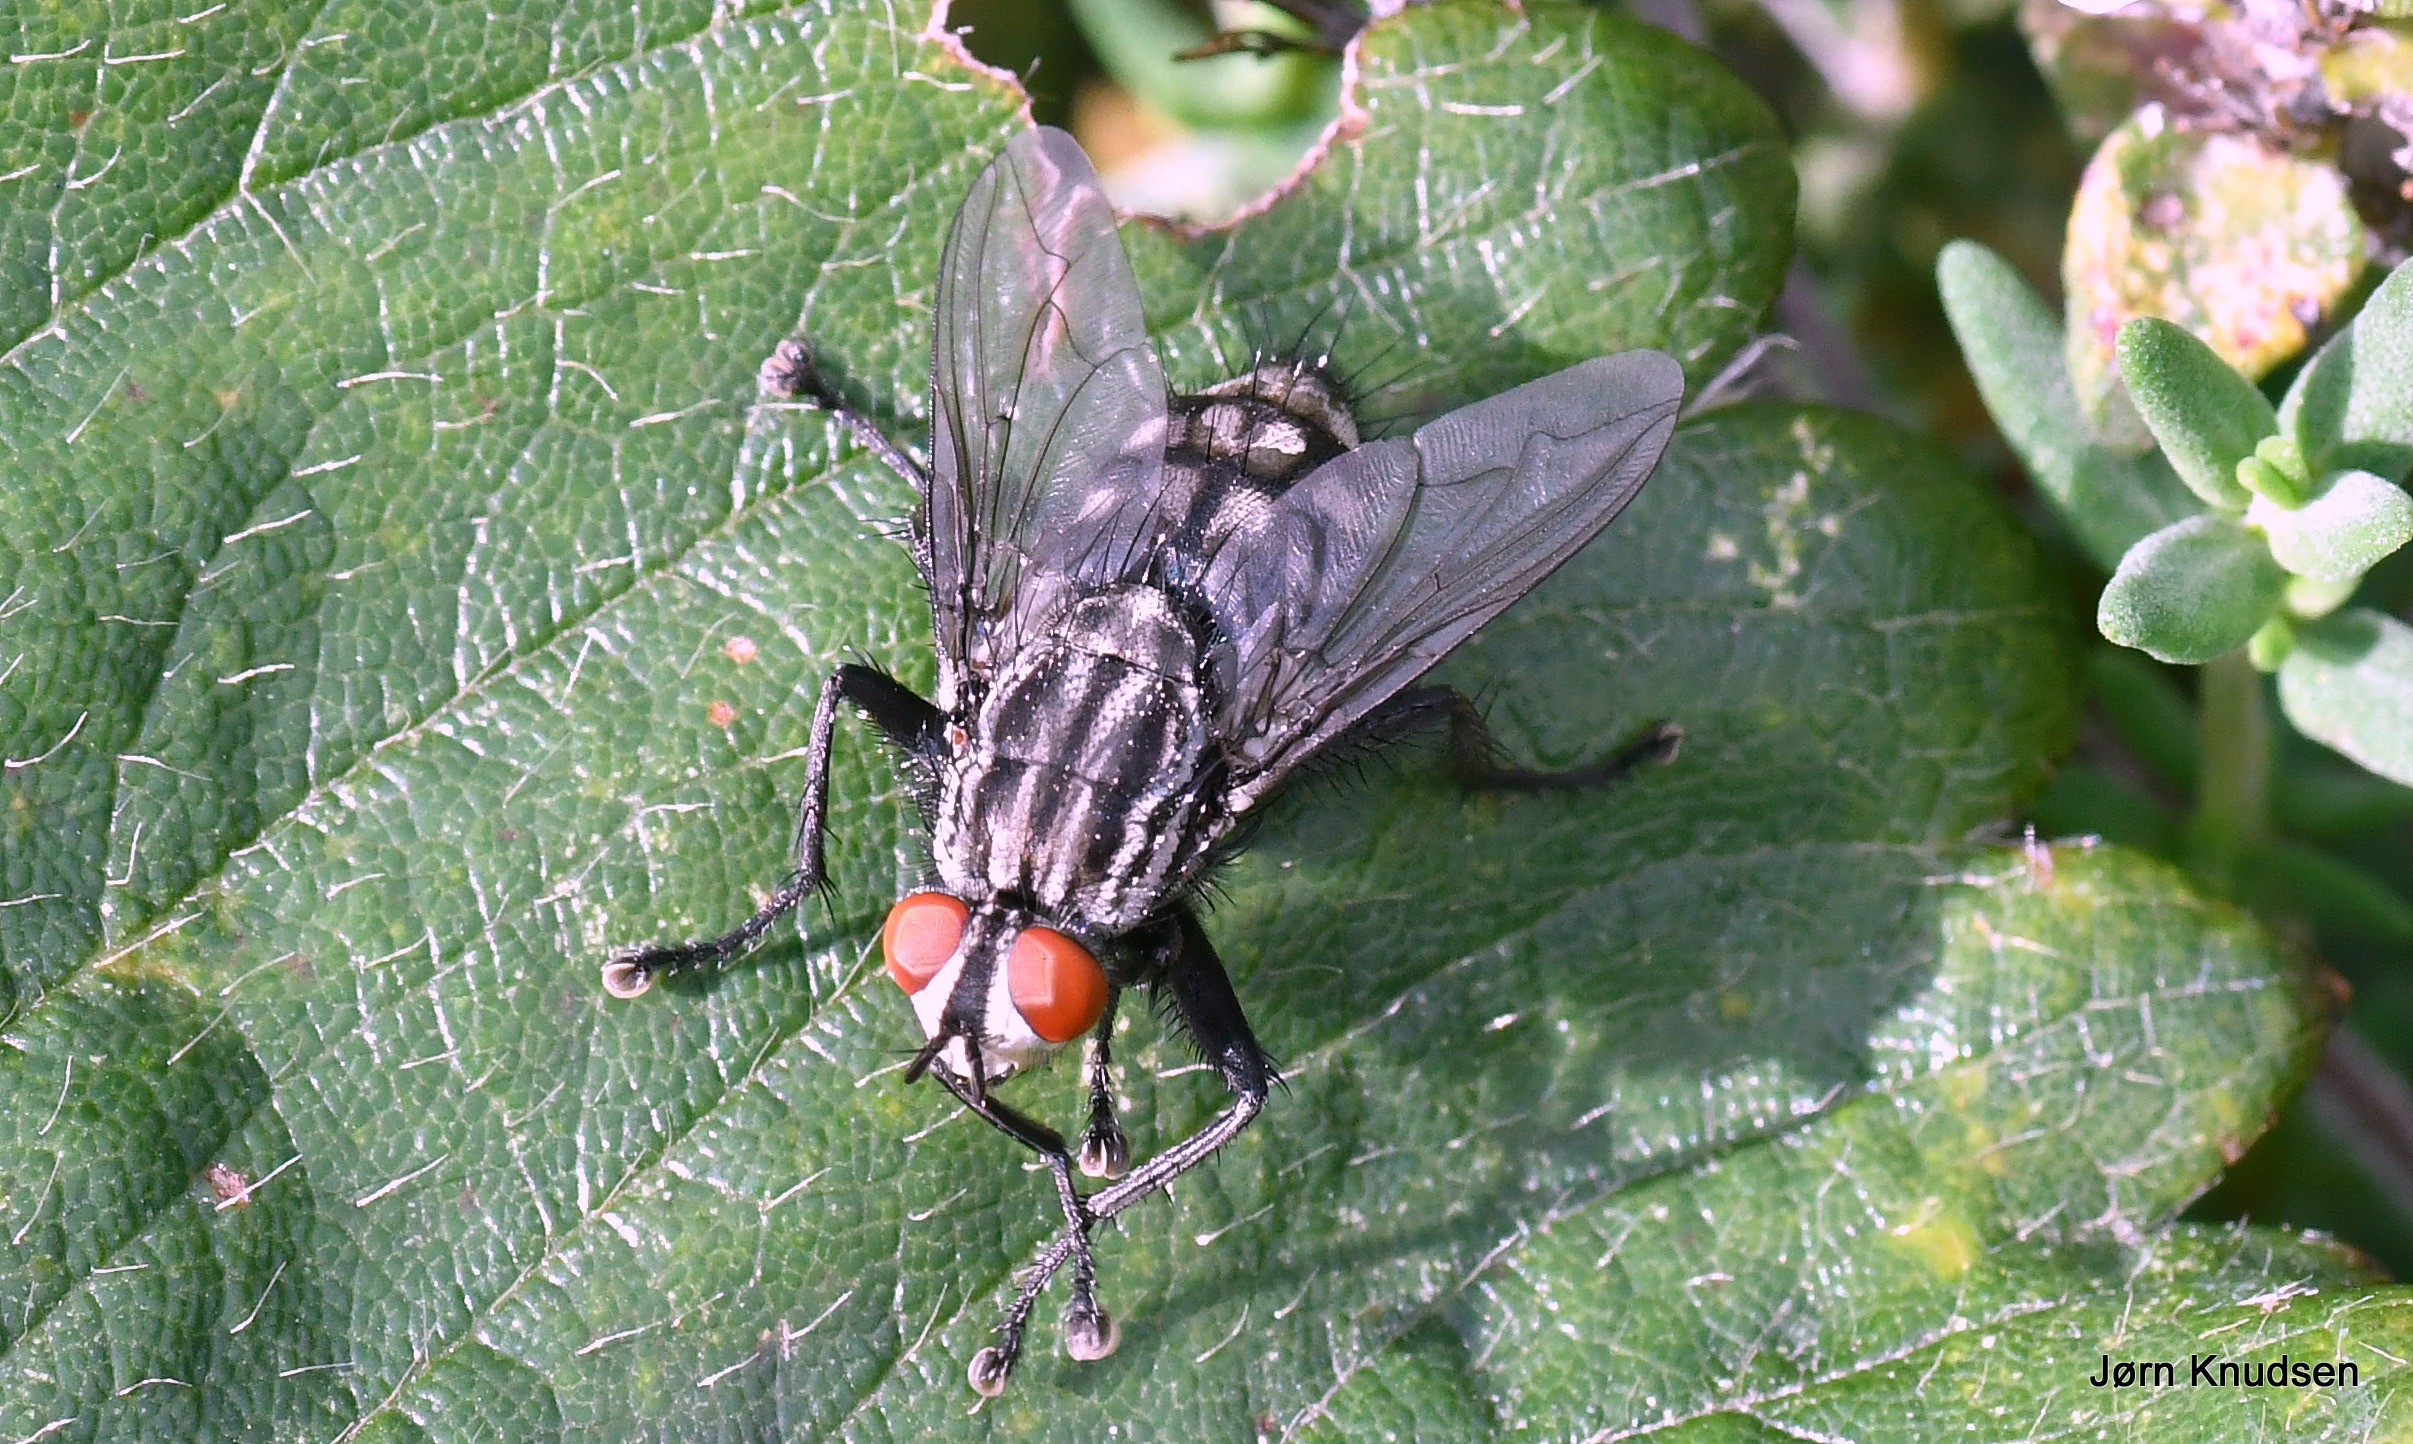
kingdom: Animalia
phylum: Arthropoda
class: Insecta
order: Diptera
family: Sarcophagidae
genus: Sarcophaga
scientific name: Sarcophaga
